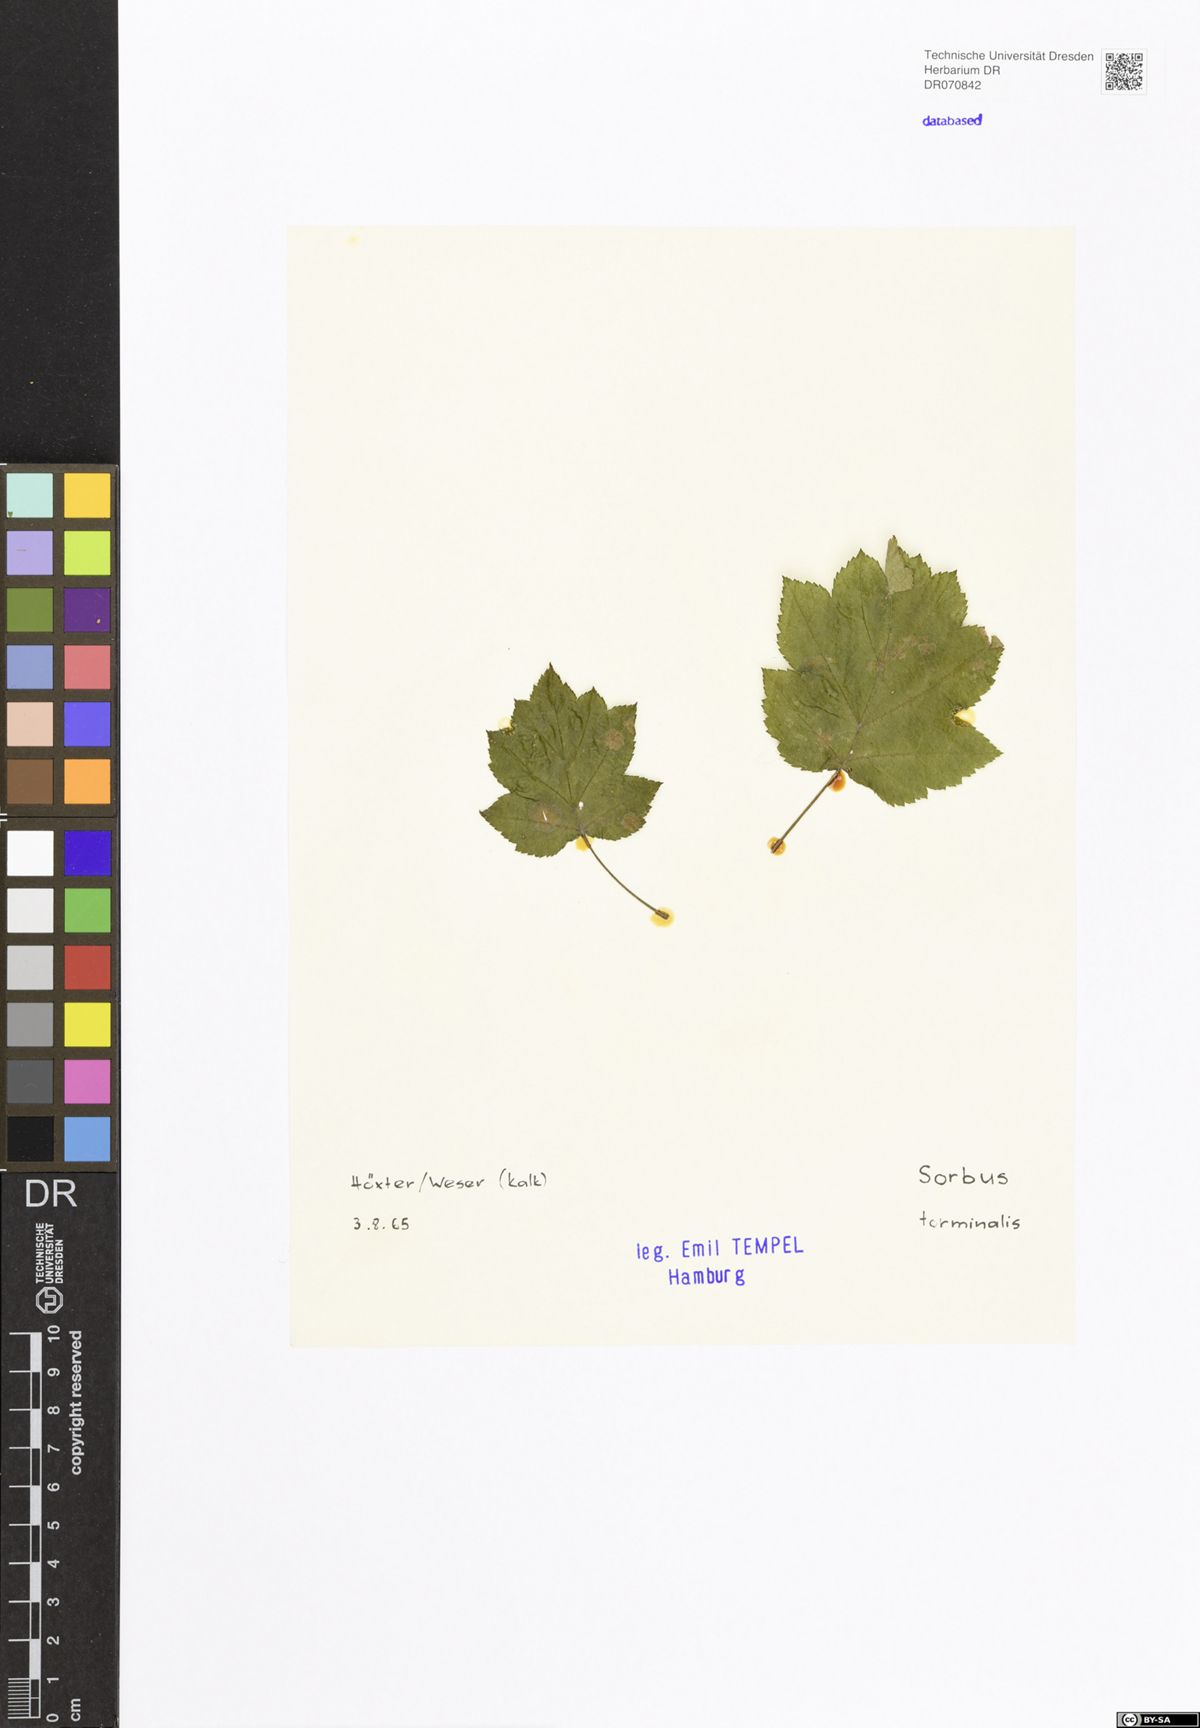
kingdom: Plantae
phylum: Tracheophyta
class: Magnoliopsida
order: Rosales
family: Rosaceae
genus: Torminalis
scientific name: Torminalis glaberrima
